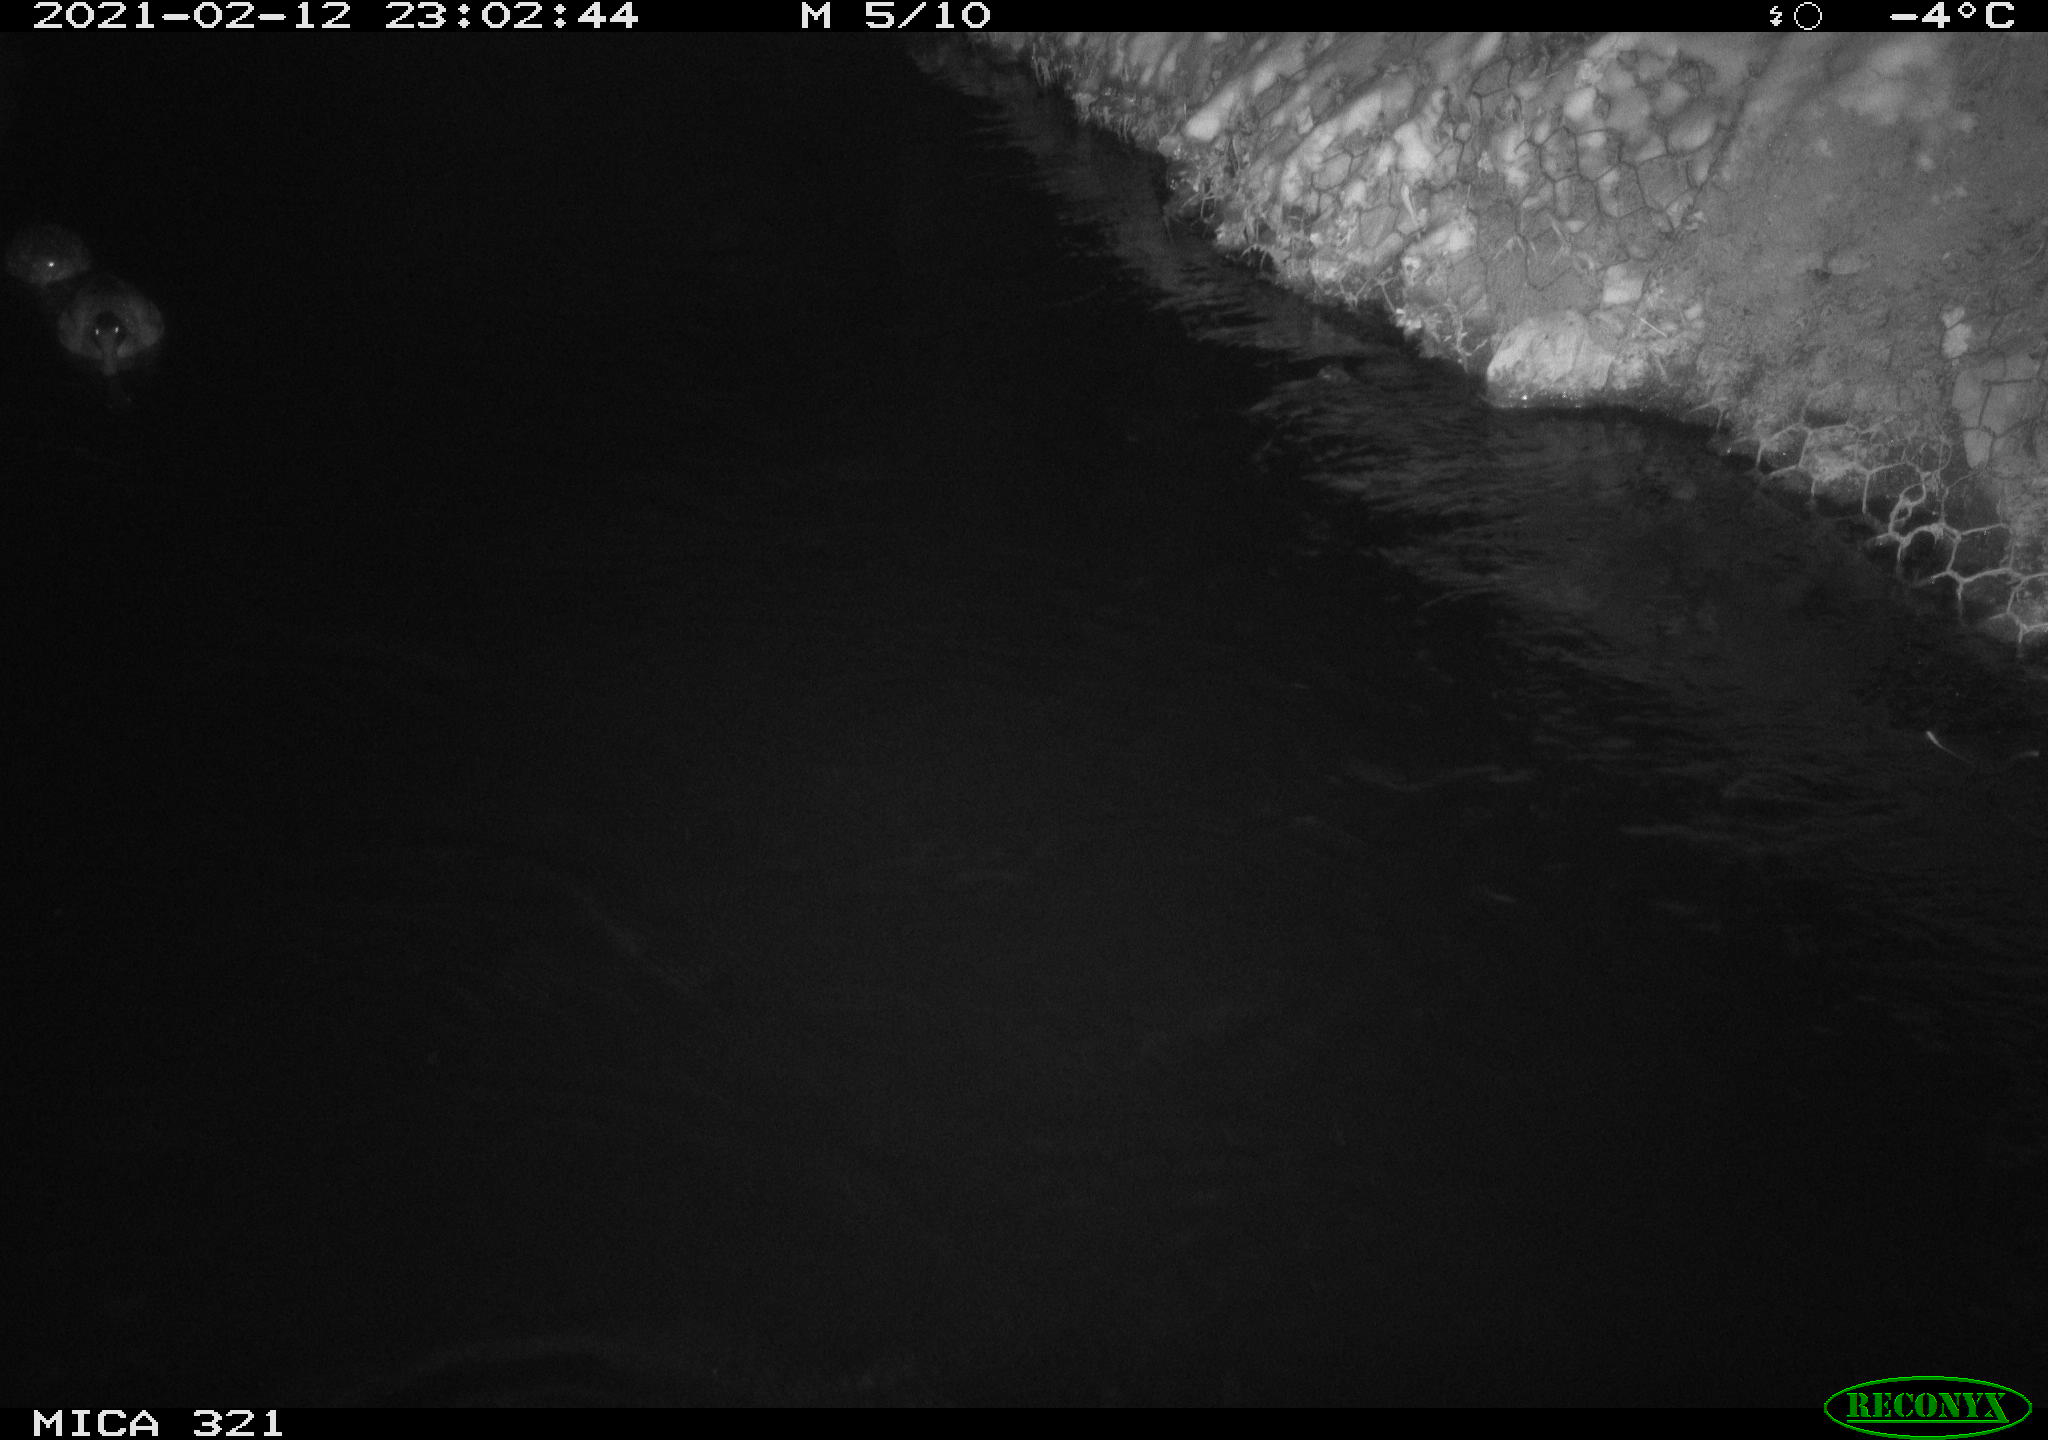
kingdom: Animalia
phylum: Chordata
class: Aves
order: Anseriformes
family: Anatidae
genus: Anas
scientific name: Anas platyrhynchos
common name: Mallard
